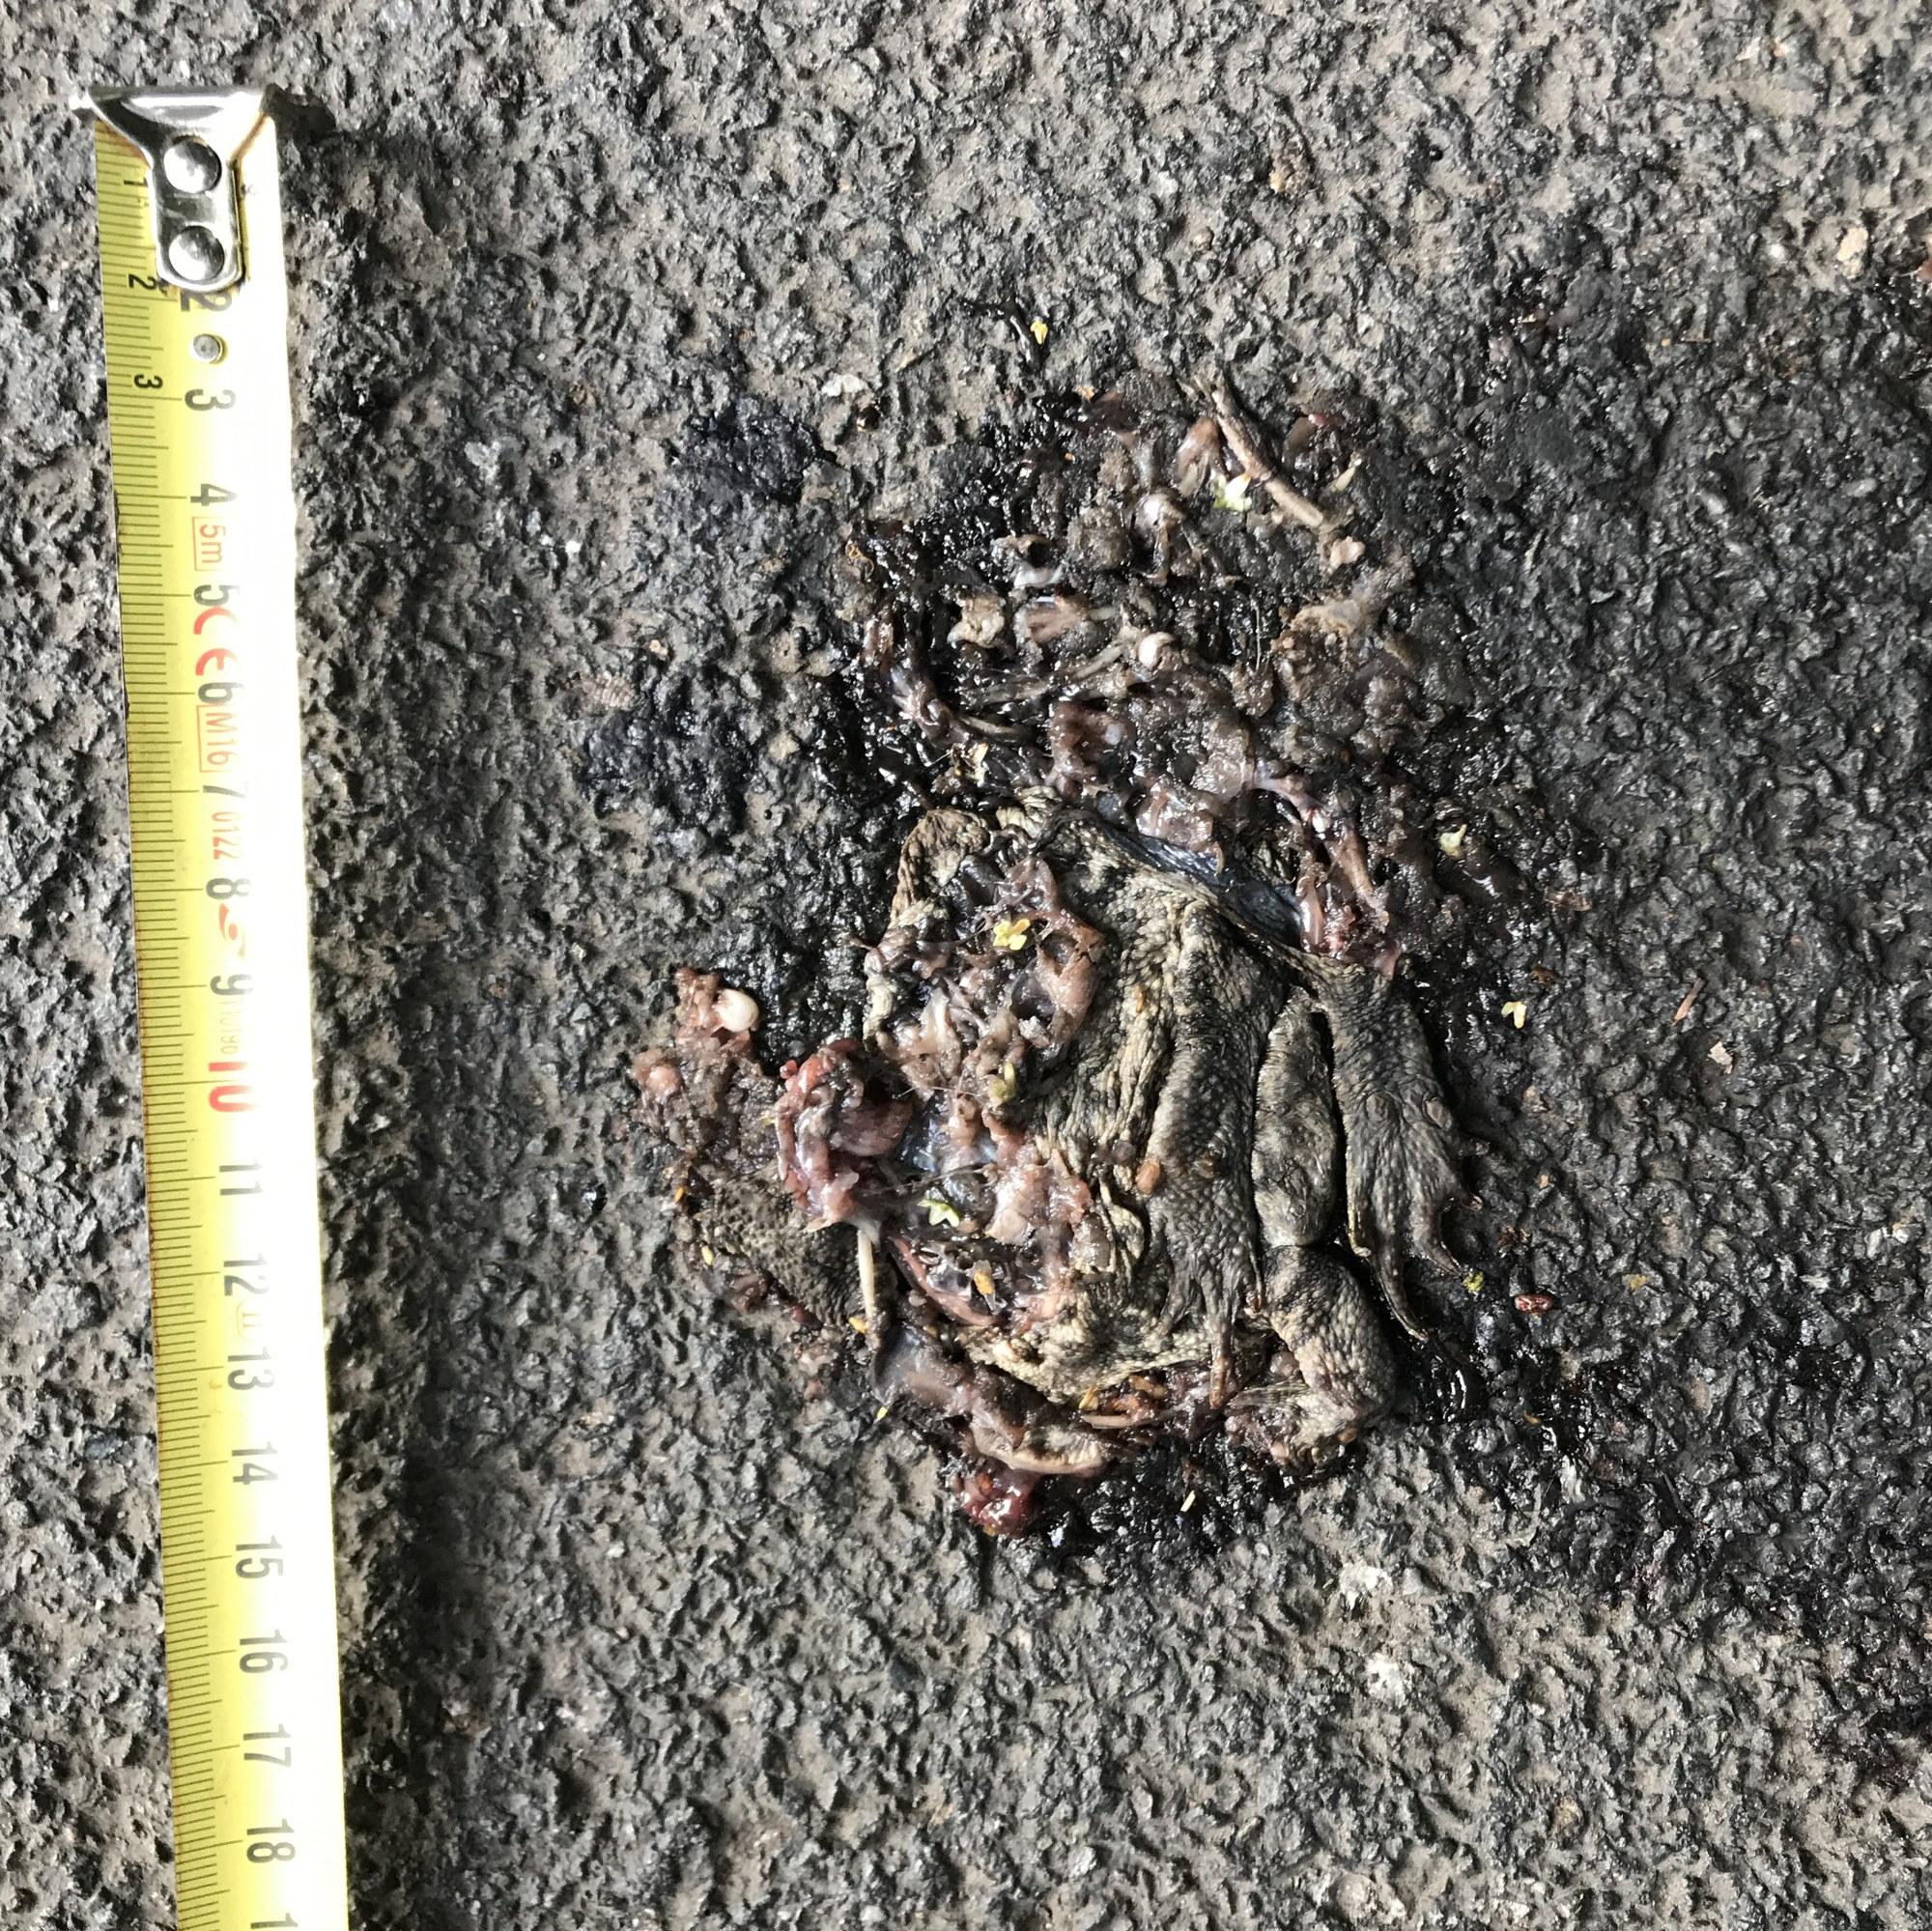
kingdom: Animalia
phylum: Chordata
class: Amphibia
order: Anura
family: Bufonidae
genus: Bufo
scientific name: Bufo bufo
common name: Common toad
